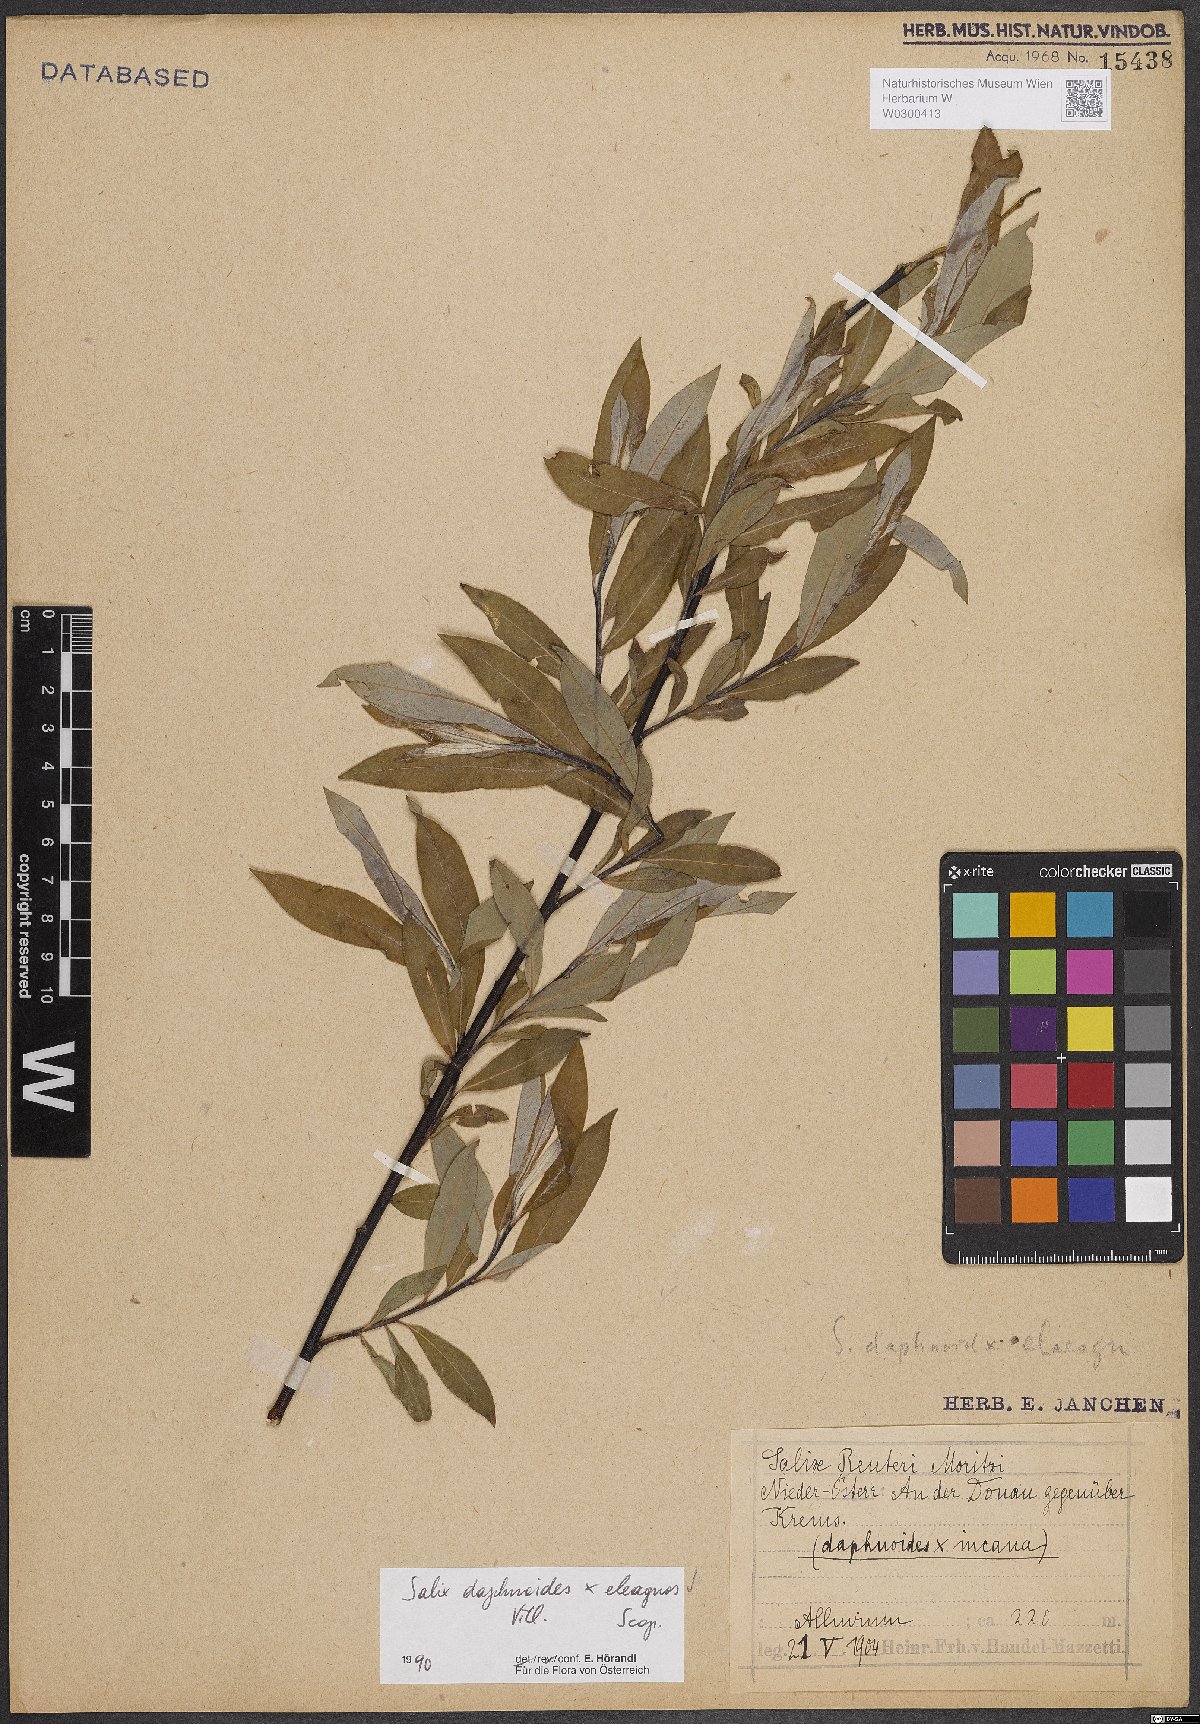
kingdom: Plantae
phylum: Tracheophyta
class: Magnoliopsida
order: Malpighiales
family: Salicaceae
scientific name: Salicaceae
